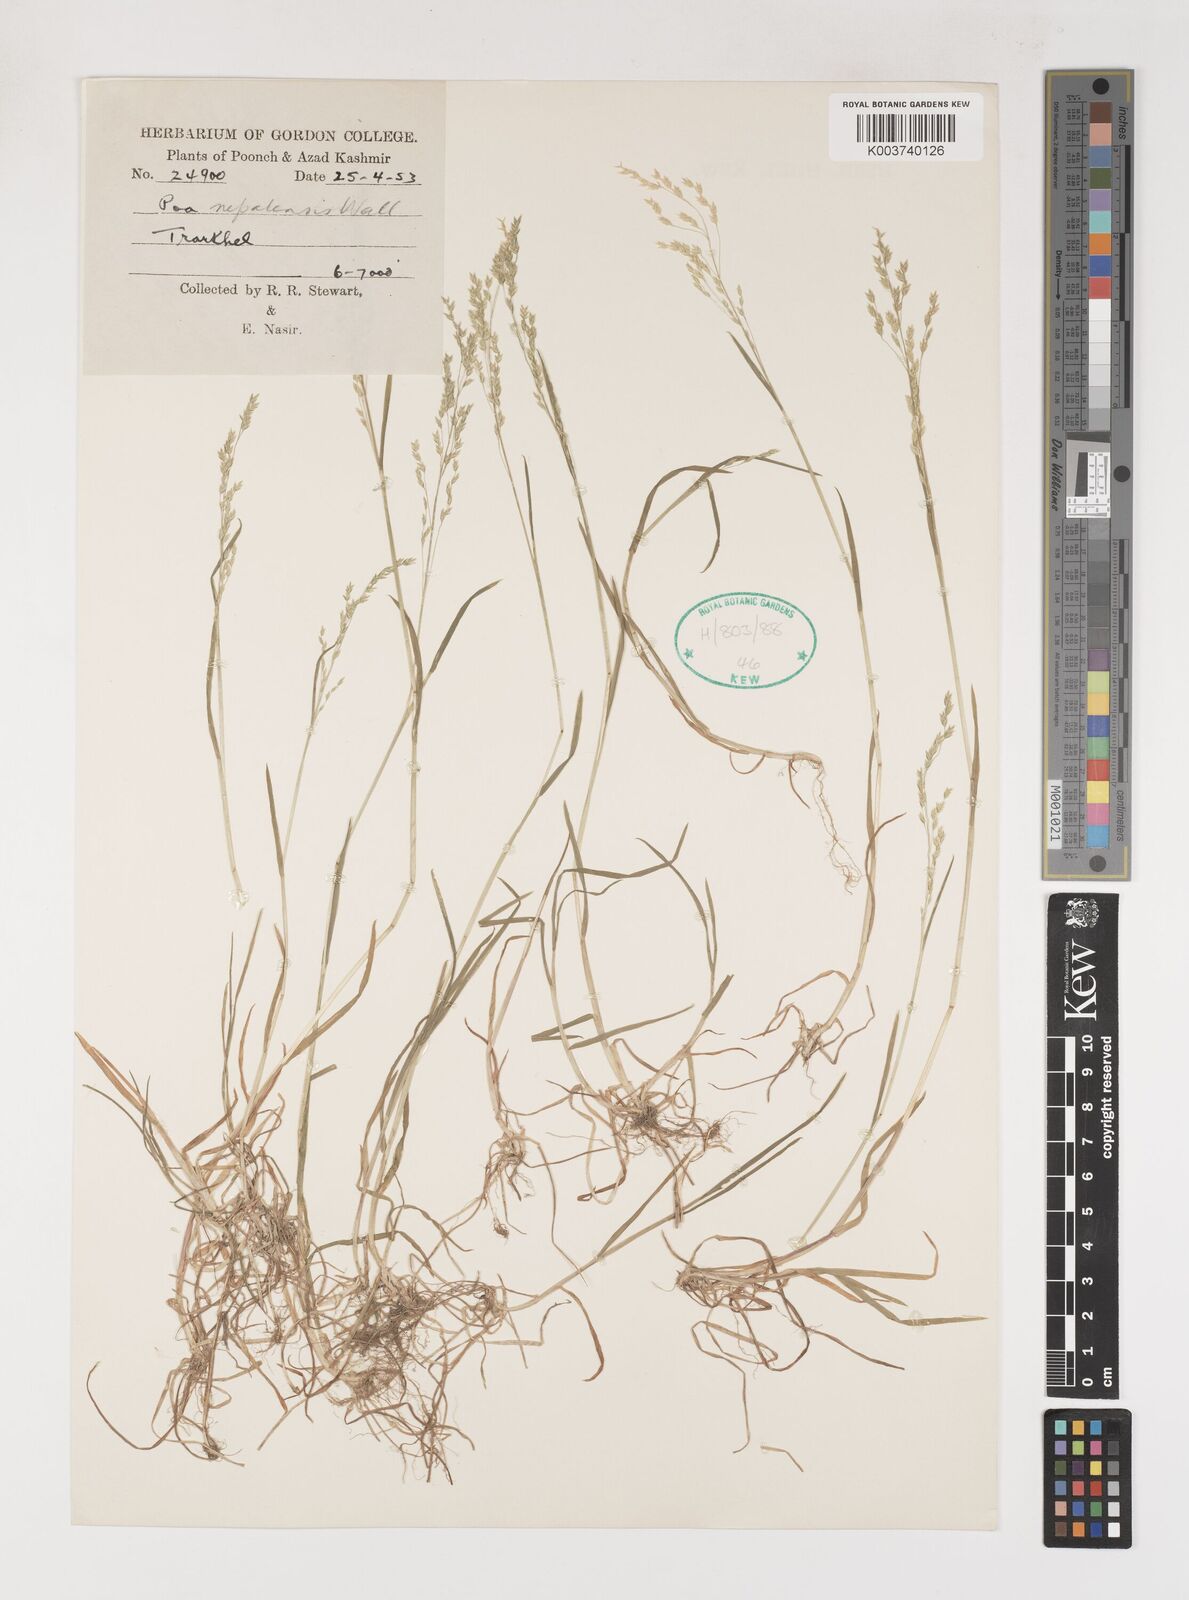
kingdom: Plantae
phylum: Tracheophyta
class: Liliopsida
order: Poales
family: Poaceae
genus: Poa
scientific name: Poa nepalensis
